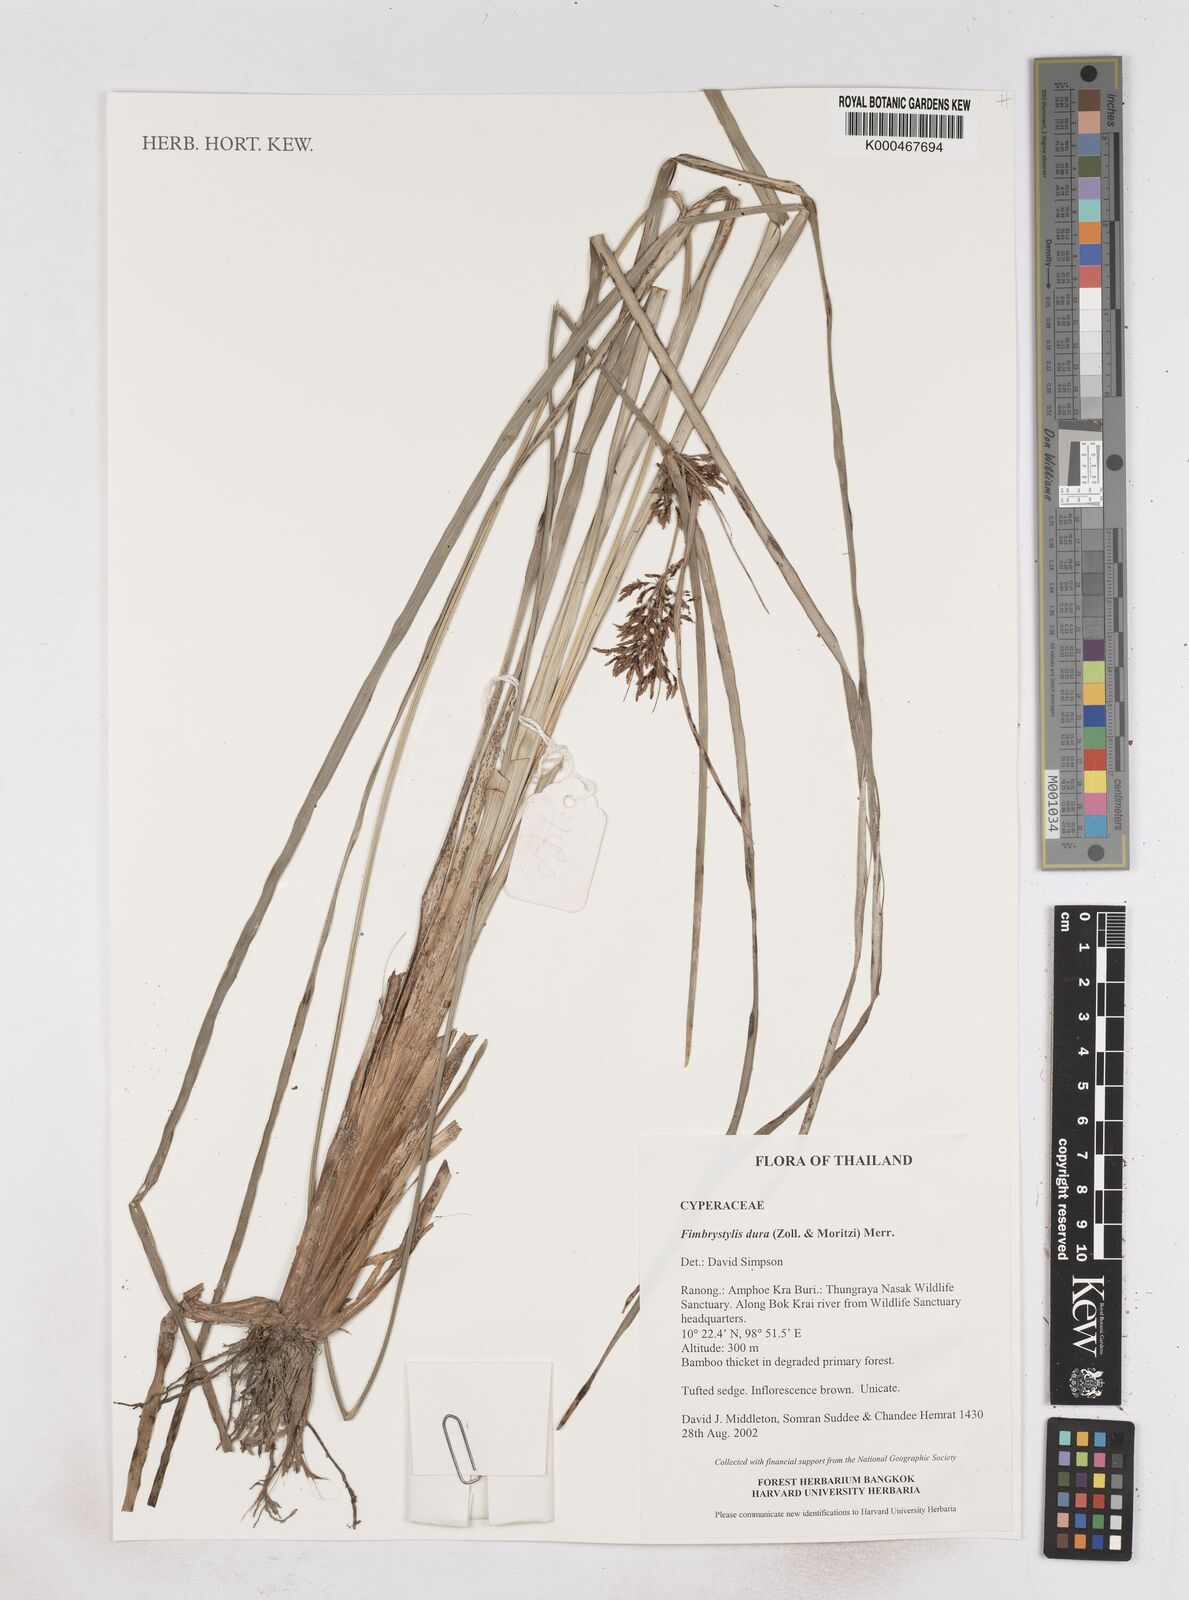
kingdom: Plantae
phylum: Tracheophyta
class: Liliopsida
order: Poales
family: Cyperaceae
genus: Fimbristylis
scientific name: Fimbristylis dura
